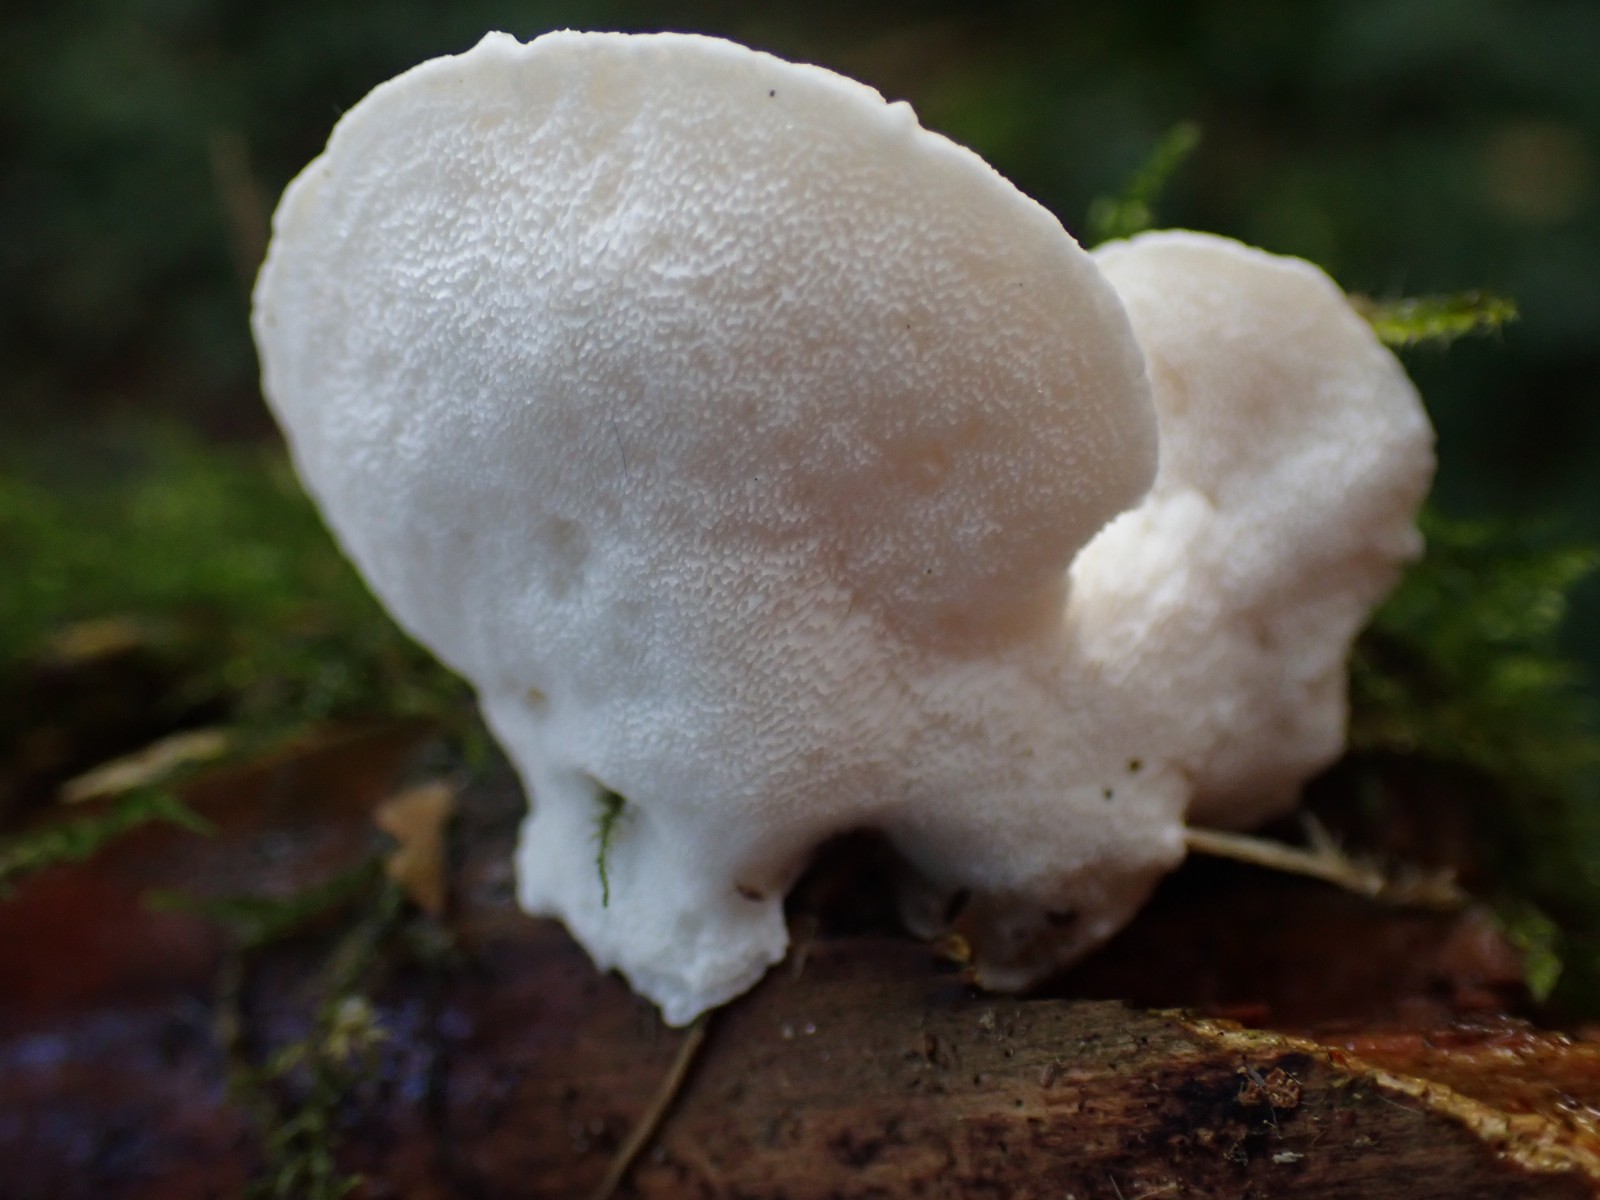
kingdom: Fungi
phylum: Basidiomycota
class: Agaricomycetes
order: Polyporales
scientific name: Polyporales
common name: poresvampordenen
